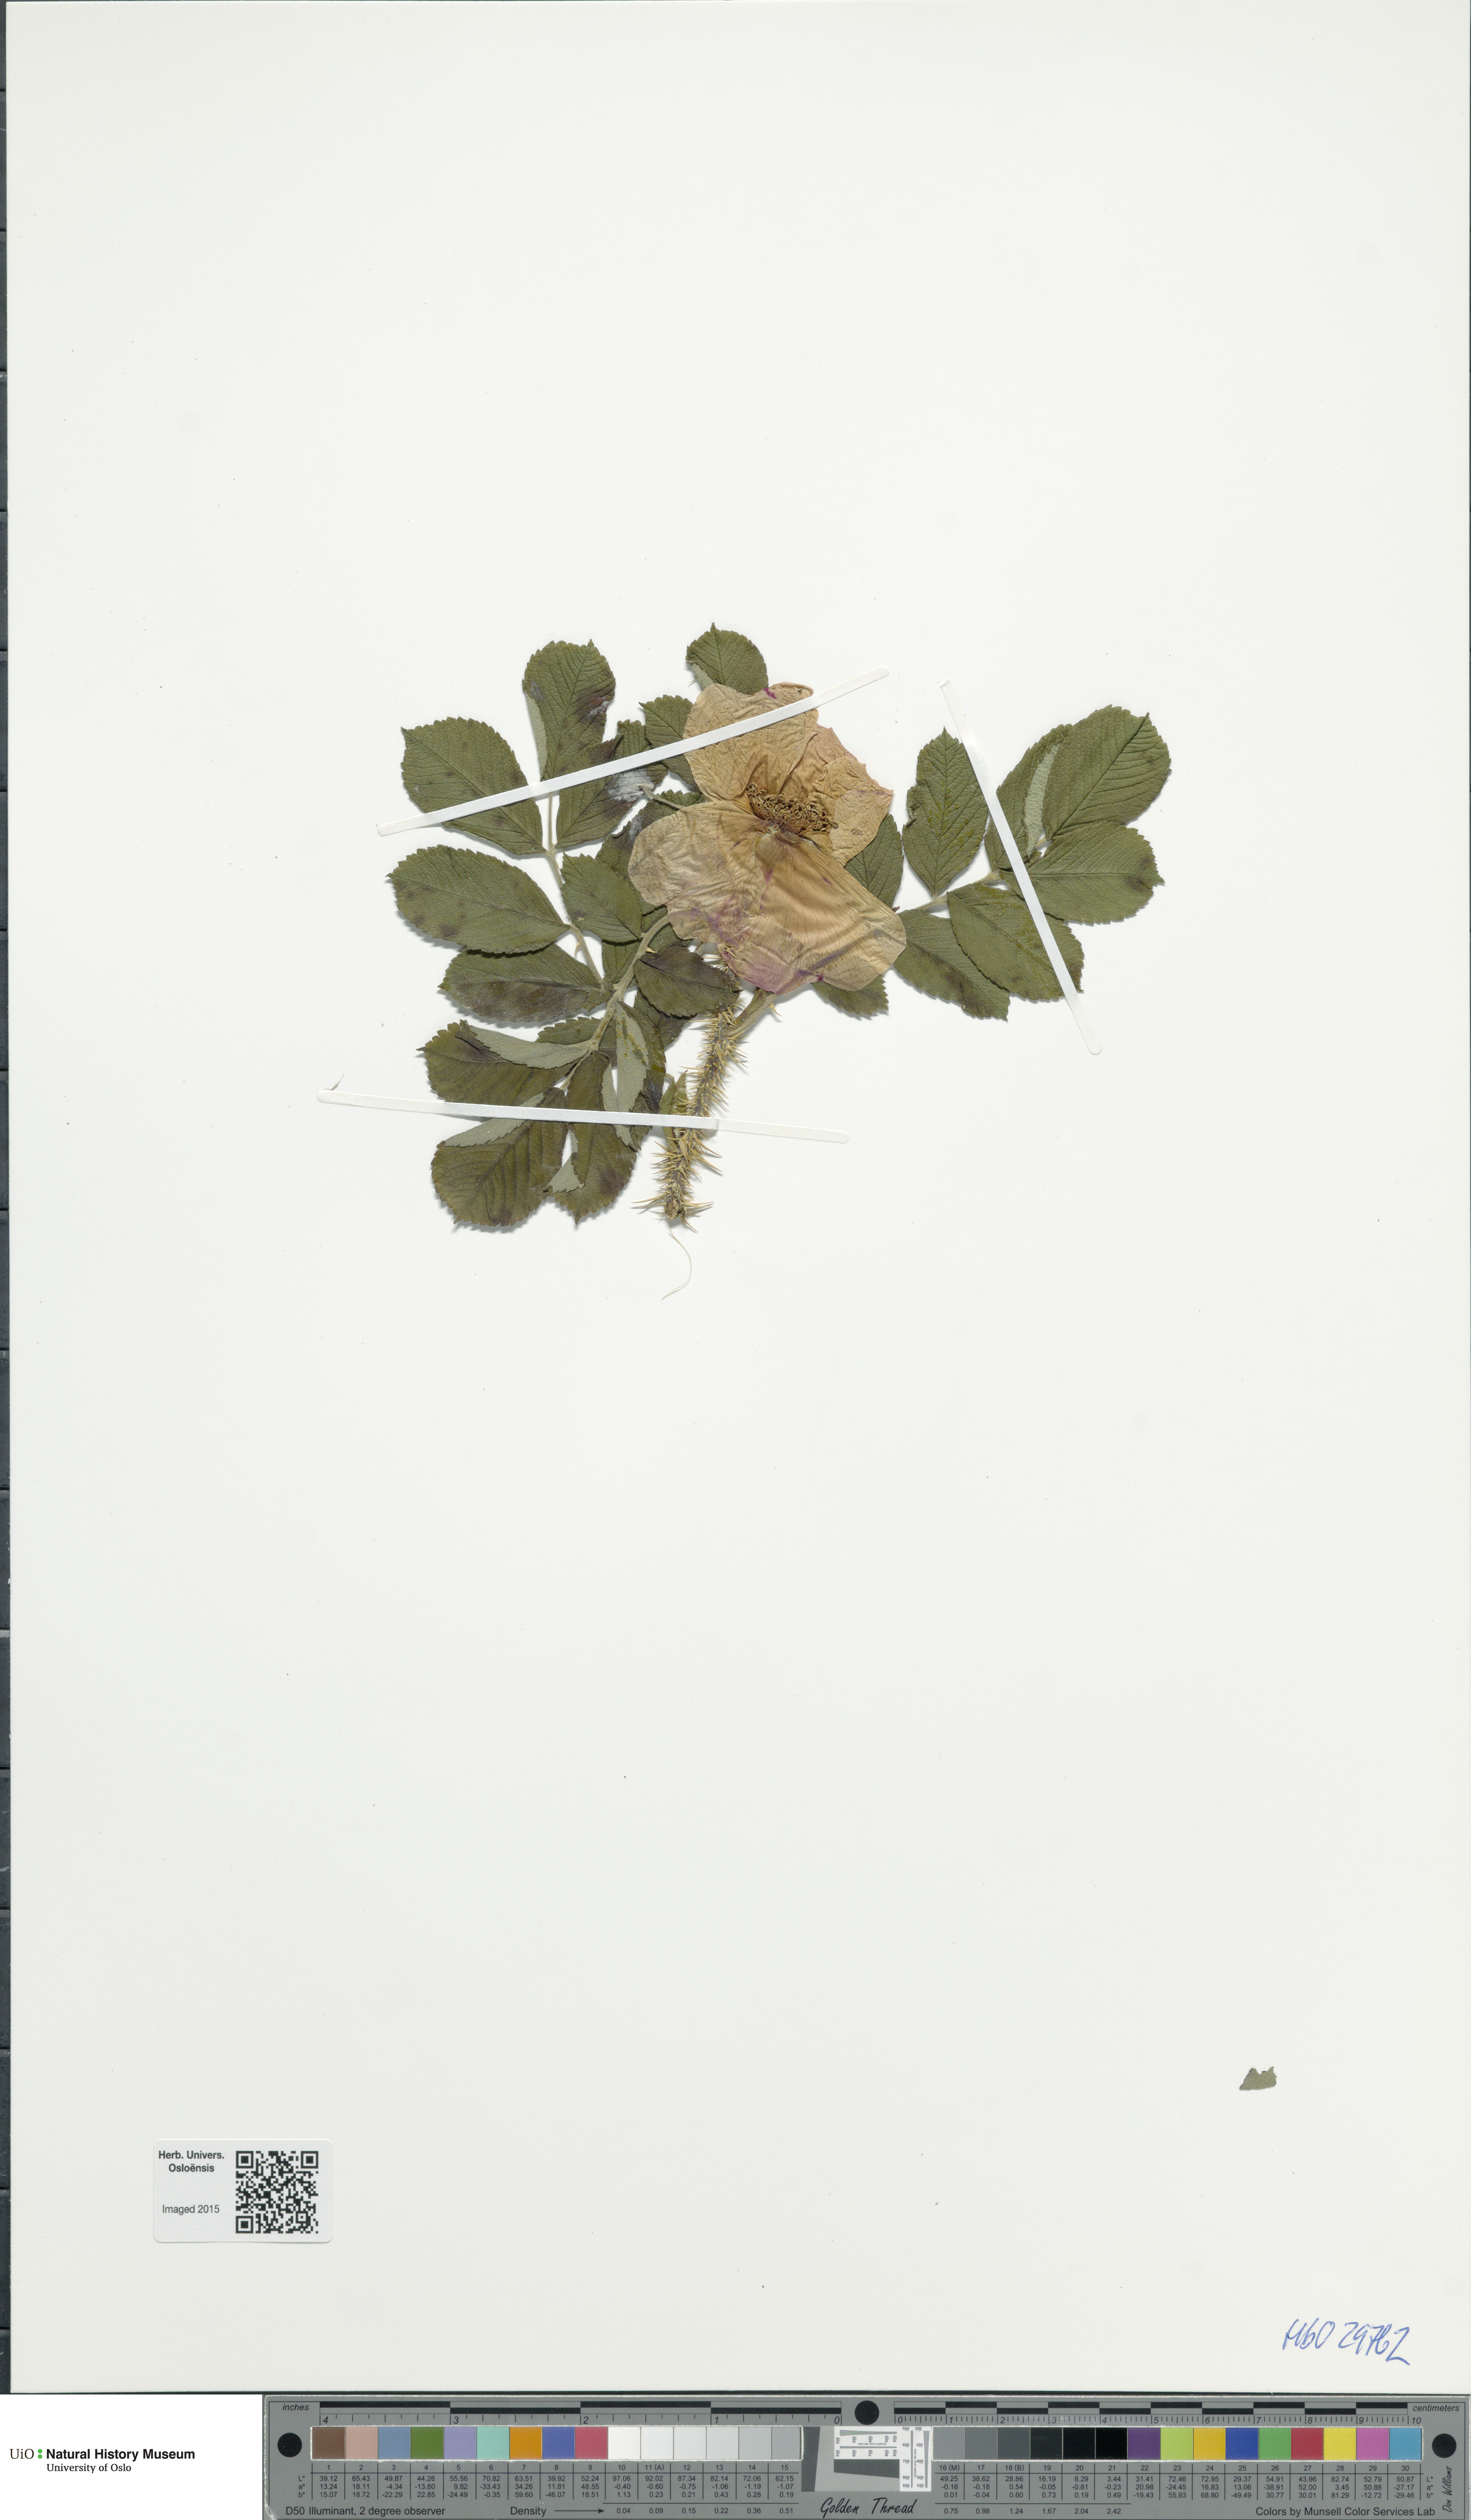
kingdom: Plantae
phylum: Tracheophyta
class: Magnoliopsida
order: Rosales
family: Rosaceae
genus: Rosa
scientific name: Rosa rugosa
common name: Japanese rose
